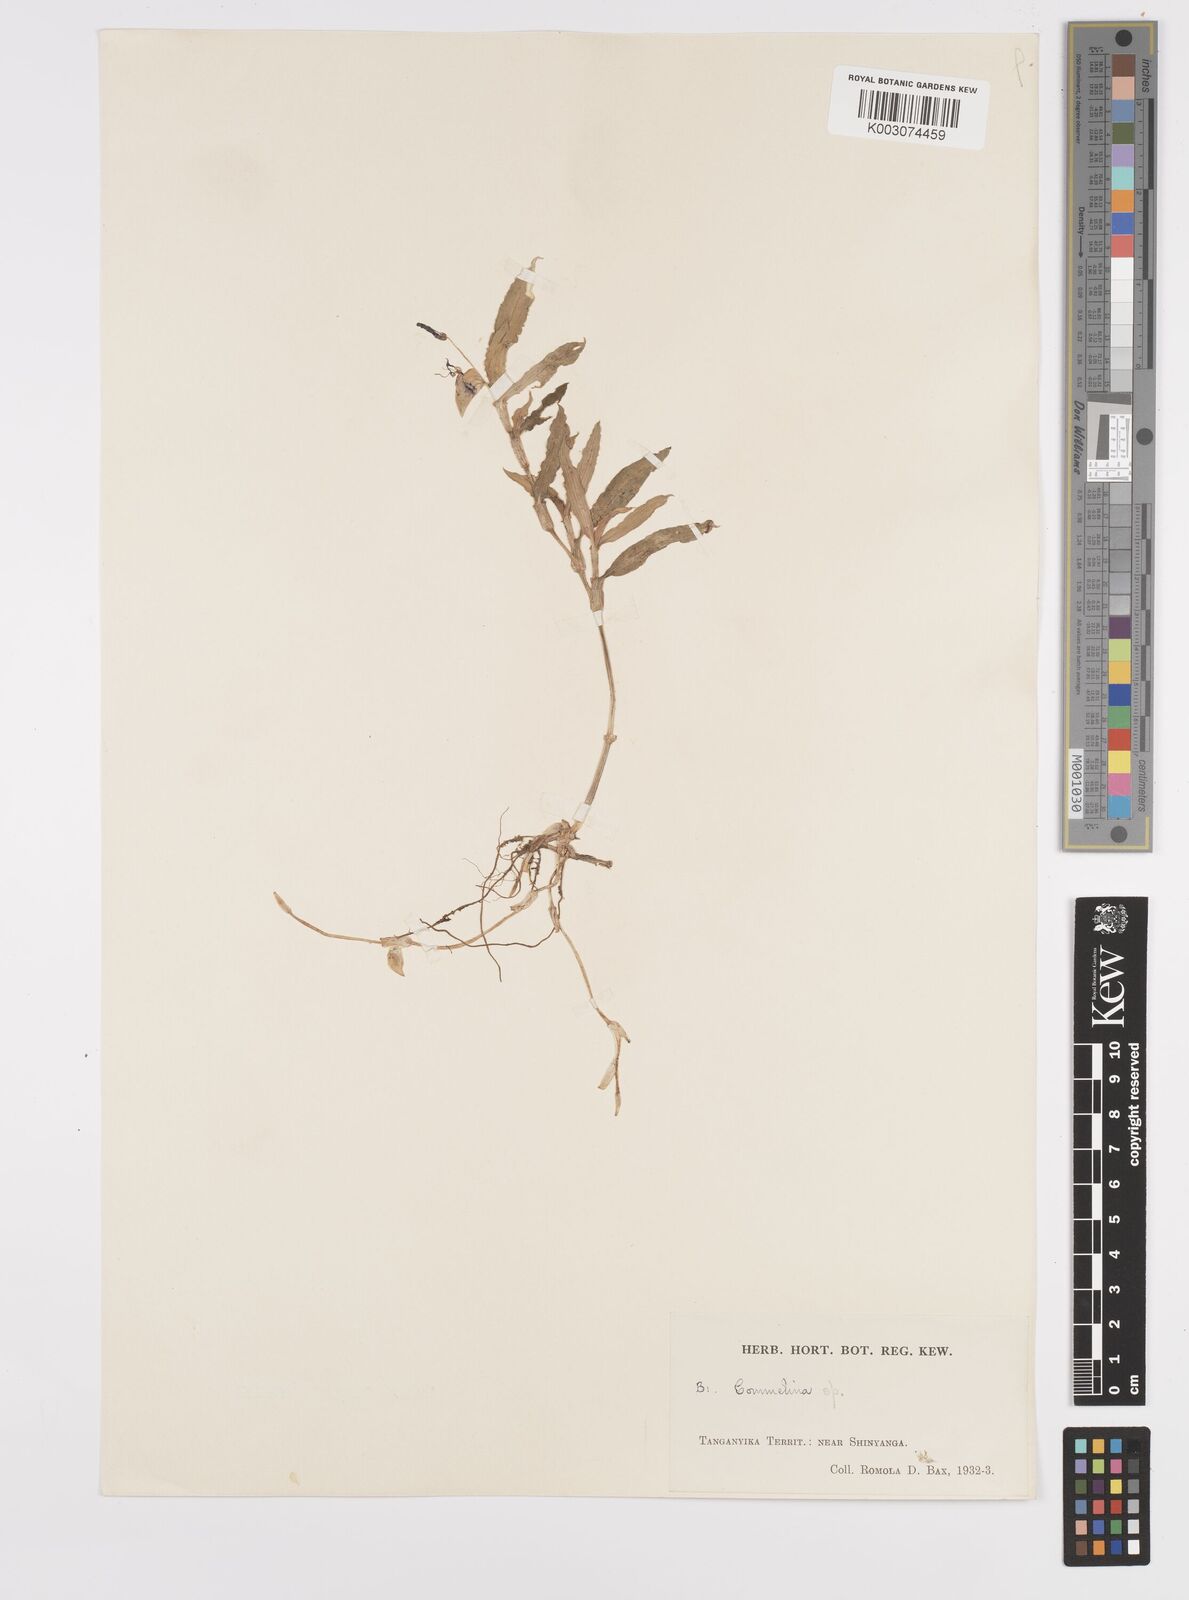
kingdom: Plantae
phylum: Tracheophyta
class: Liliopsida
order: Commelinales
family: Commelinaceae
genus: Commelina
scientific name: Commelina
